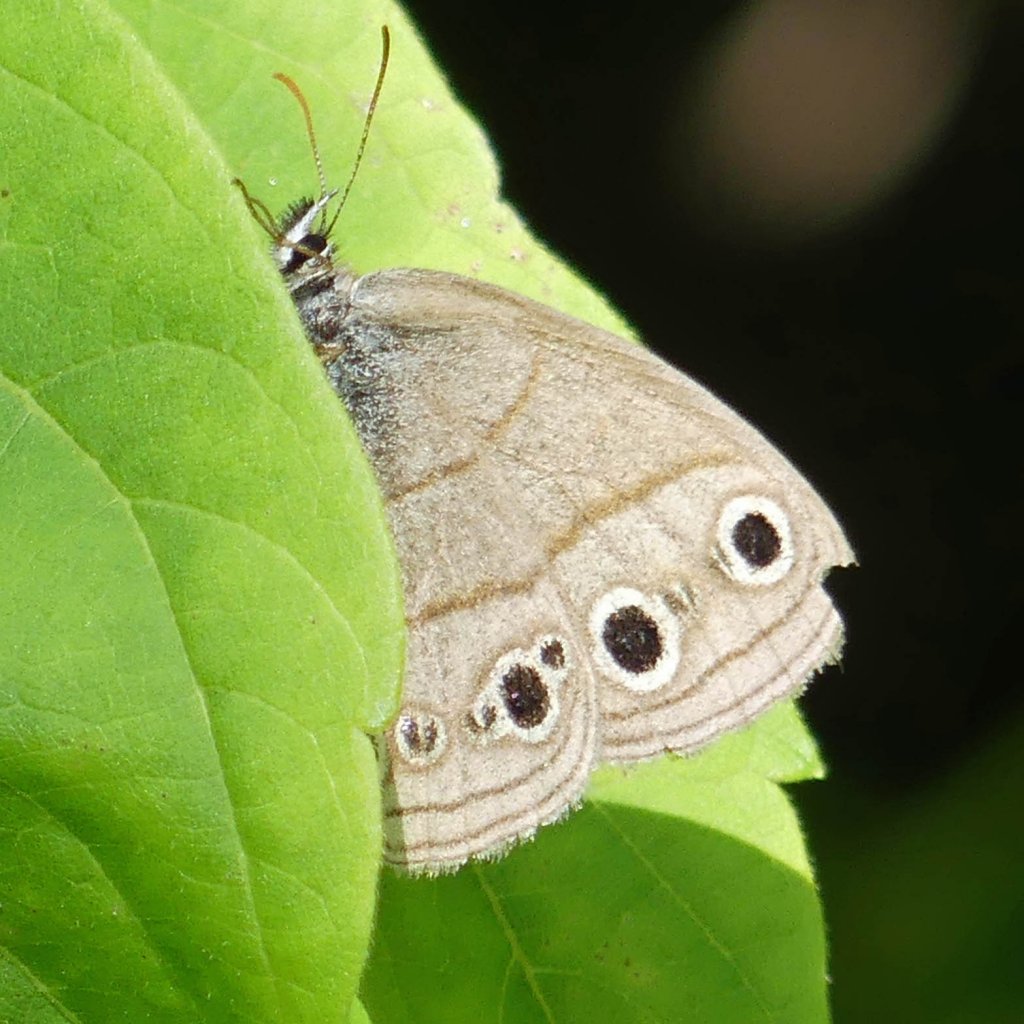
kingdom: Animalia
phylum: Arthropoda
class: Insecta
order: Lepidoptera
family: Nymphalidae
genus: Euptychia
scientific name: Euptychia cymela
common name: Little Wood Satyr
